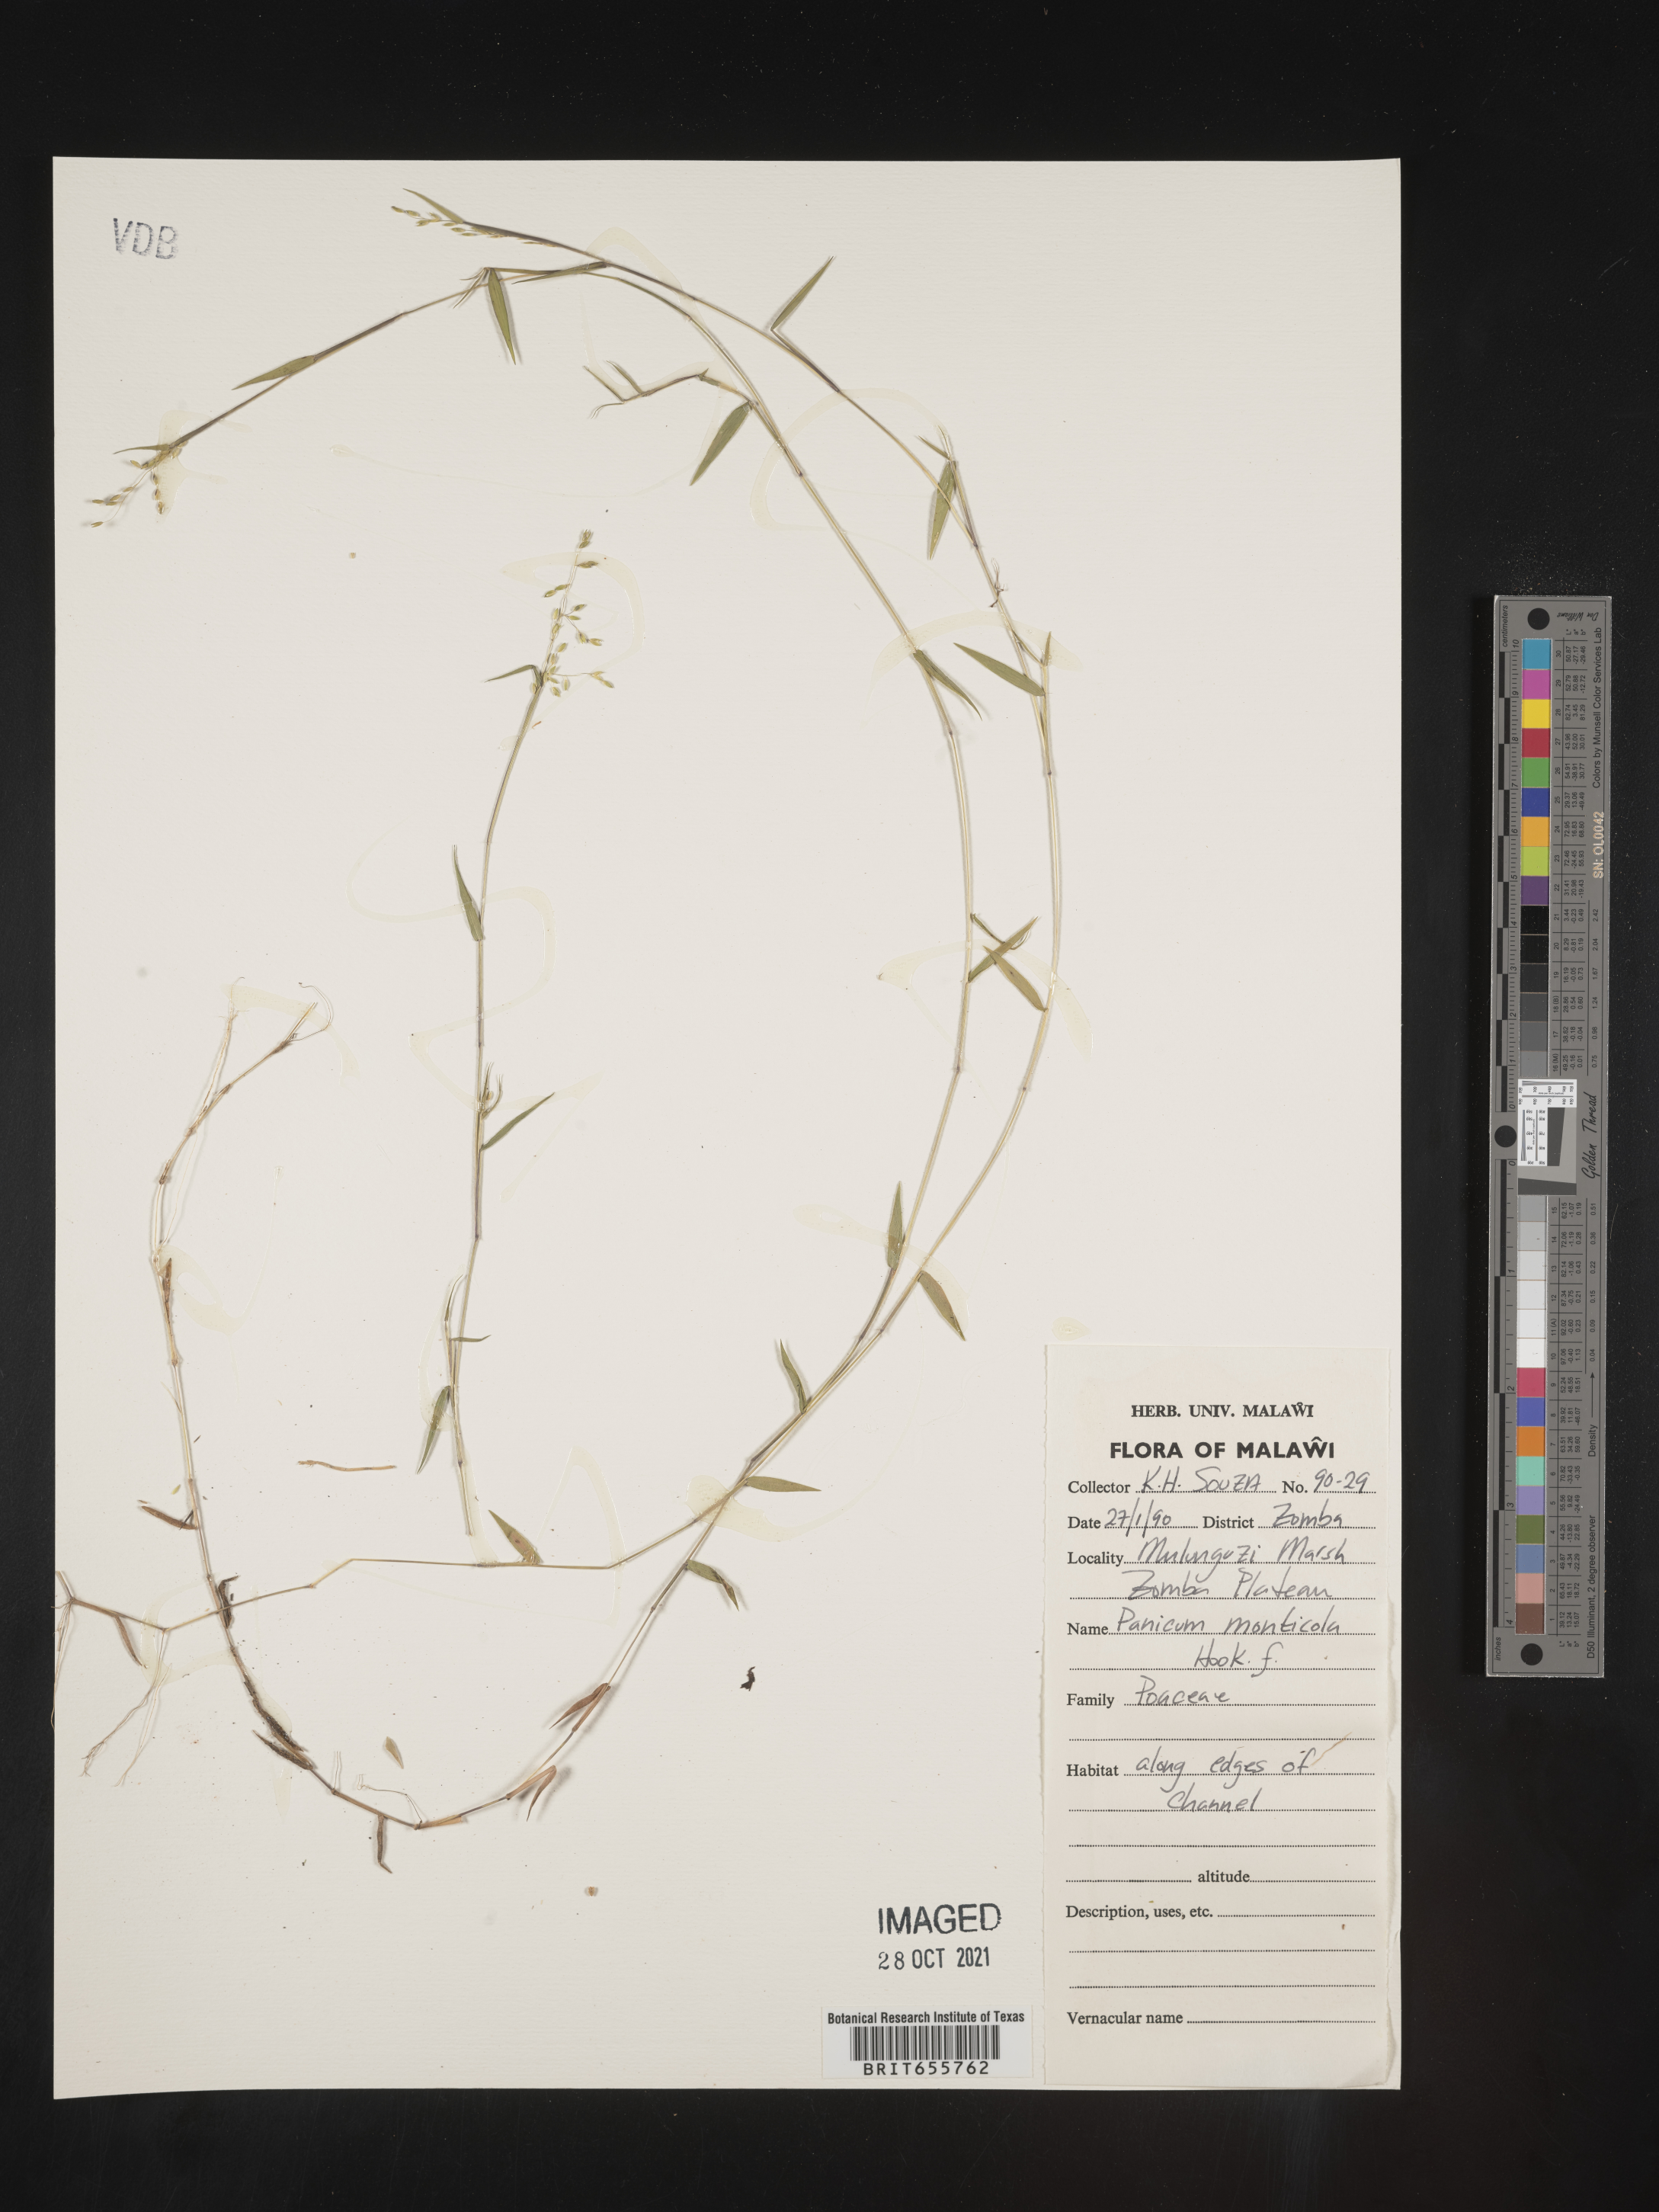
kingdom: Plantae
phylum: Tracheophyta
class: Liliopsida
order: Poales
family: Poaceae
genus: Panicum
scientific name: Panicum
